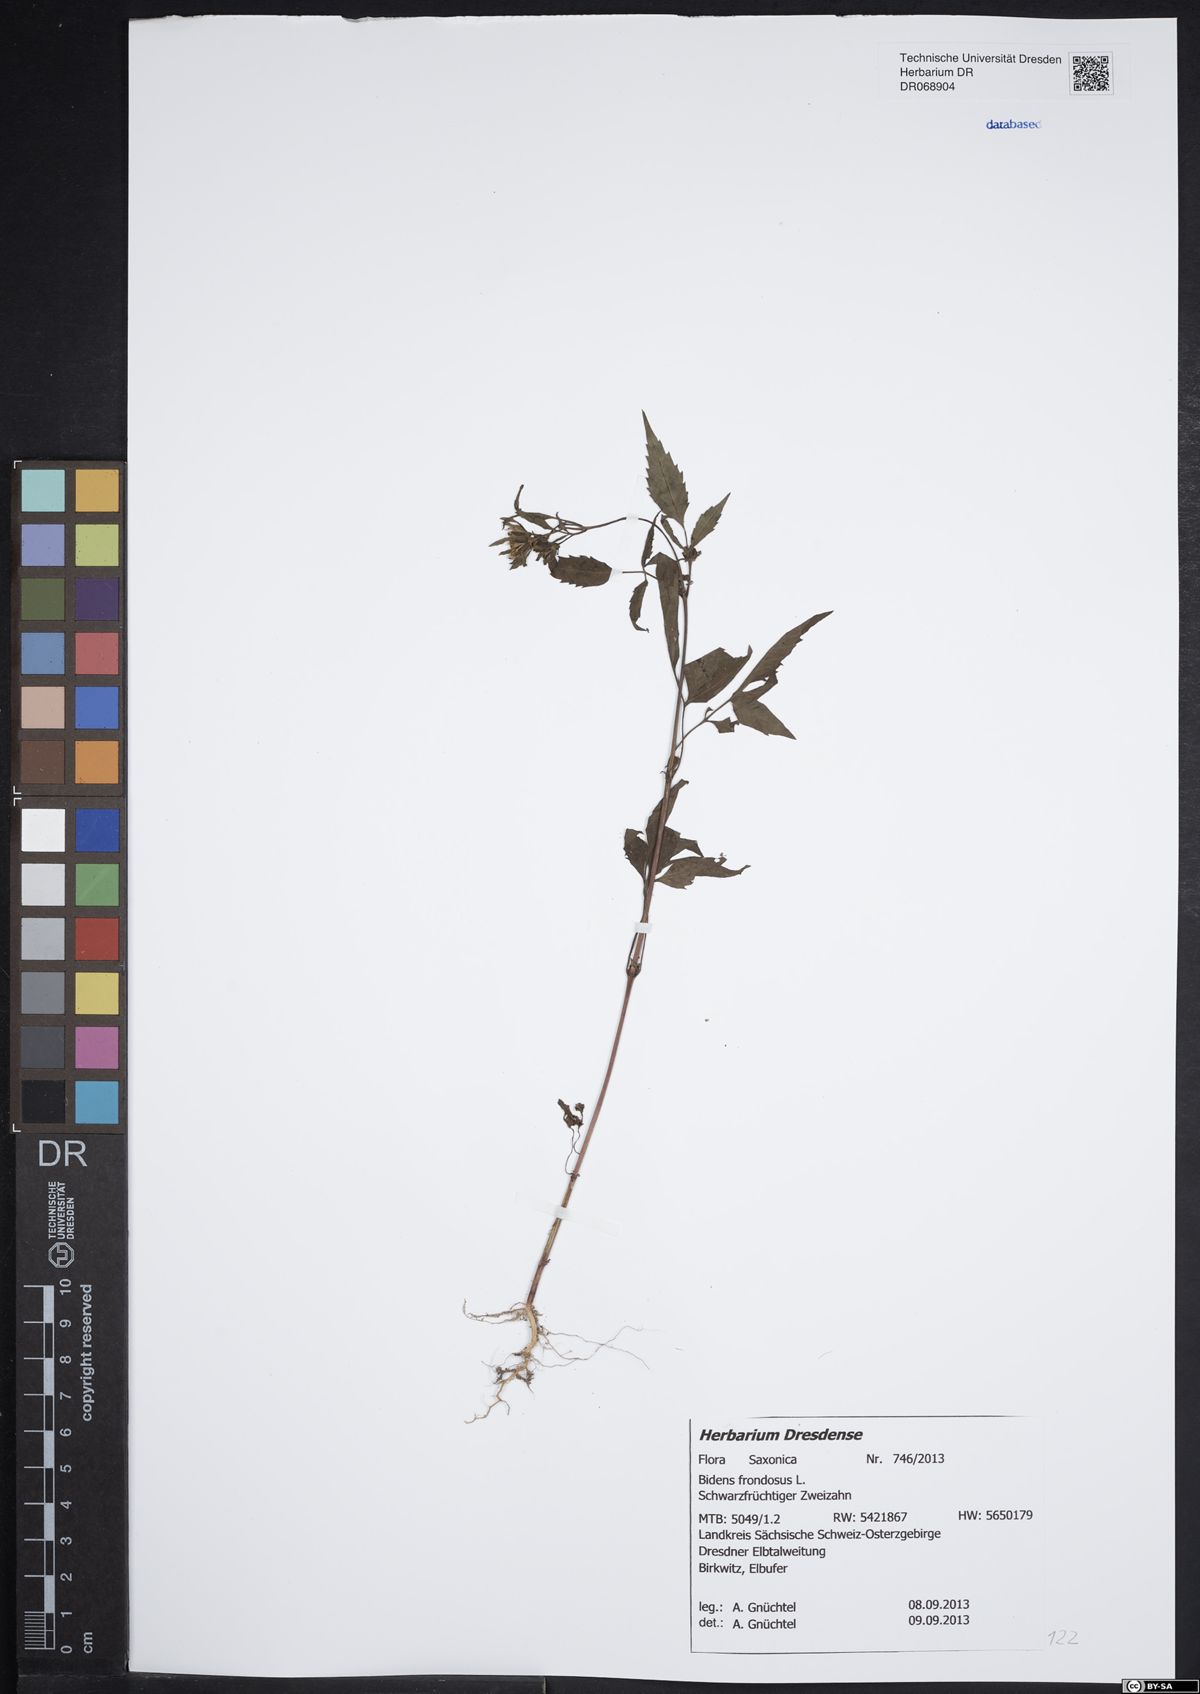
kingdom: Plantae
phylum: Tracheophyta
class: Magnoliopsida
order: Asterales
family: Asteraceae
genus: Bidens
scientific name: Bidens frondosa
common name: Beggarticks
